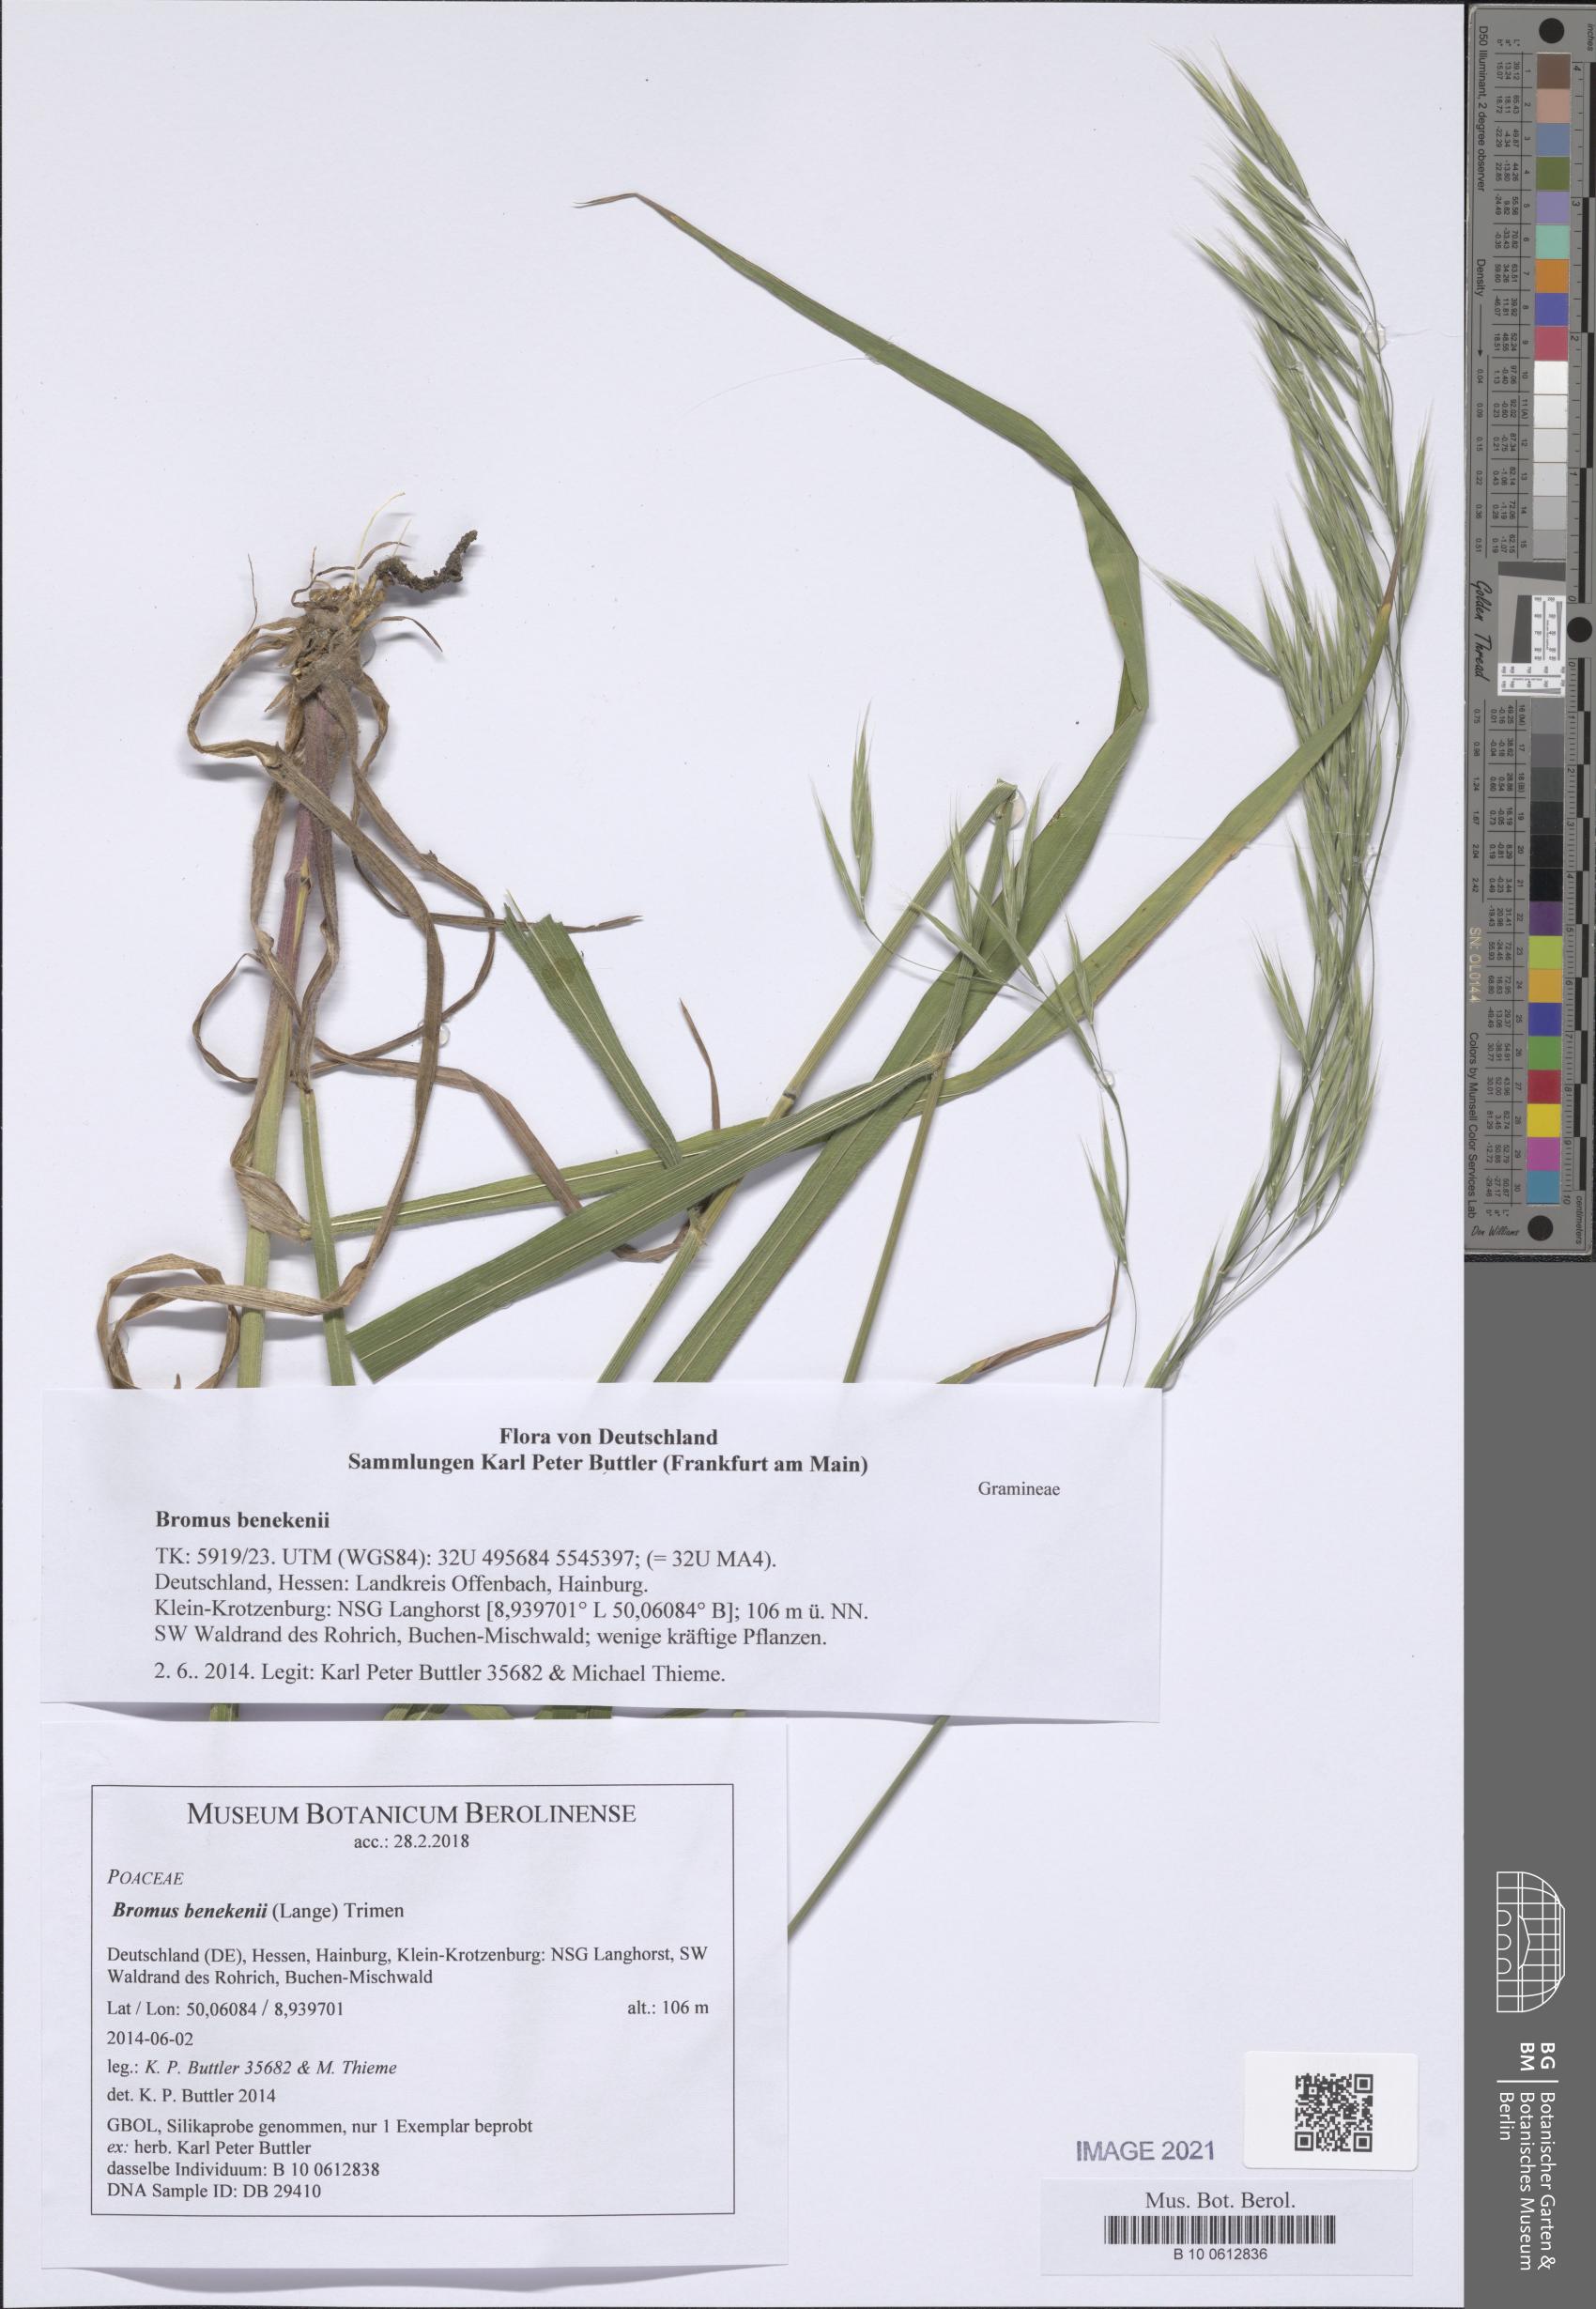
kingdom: Plantae
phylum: Tracheophyta
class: Liliopsida
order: Poales
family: Poaceae
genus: Bromus
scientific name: Bromus benekenii
